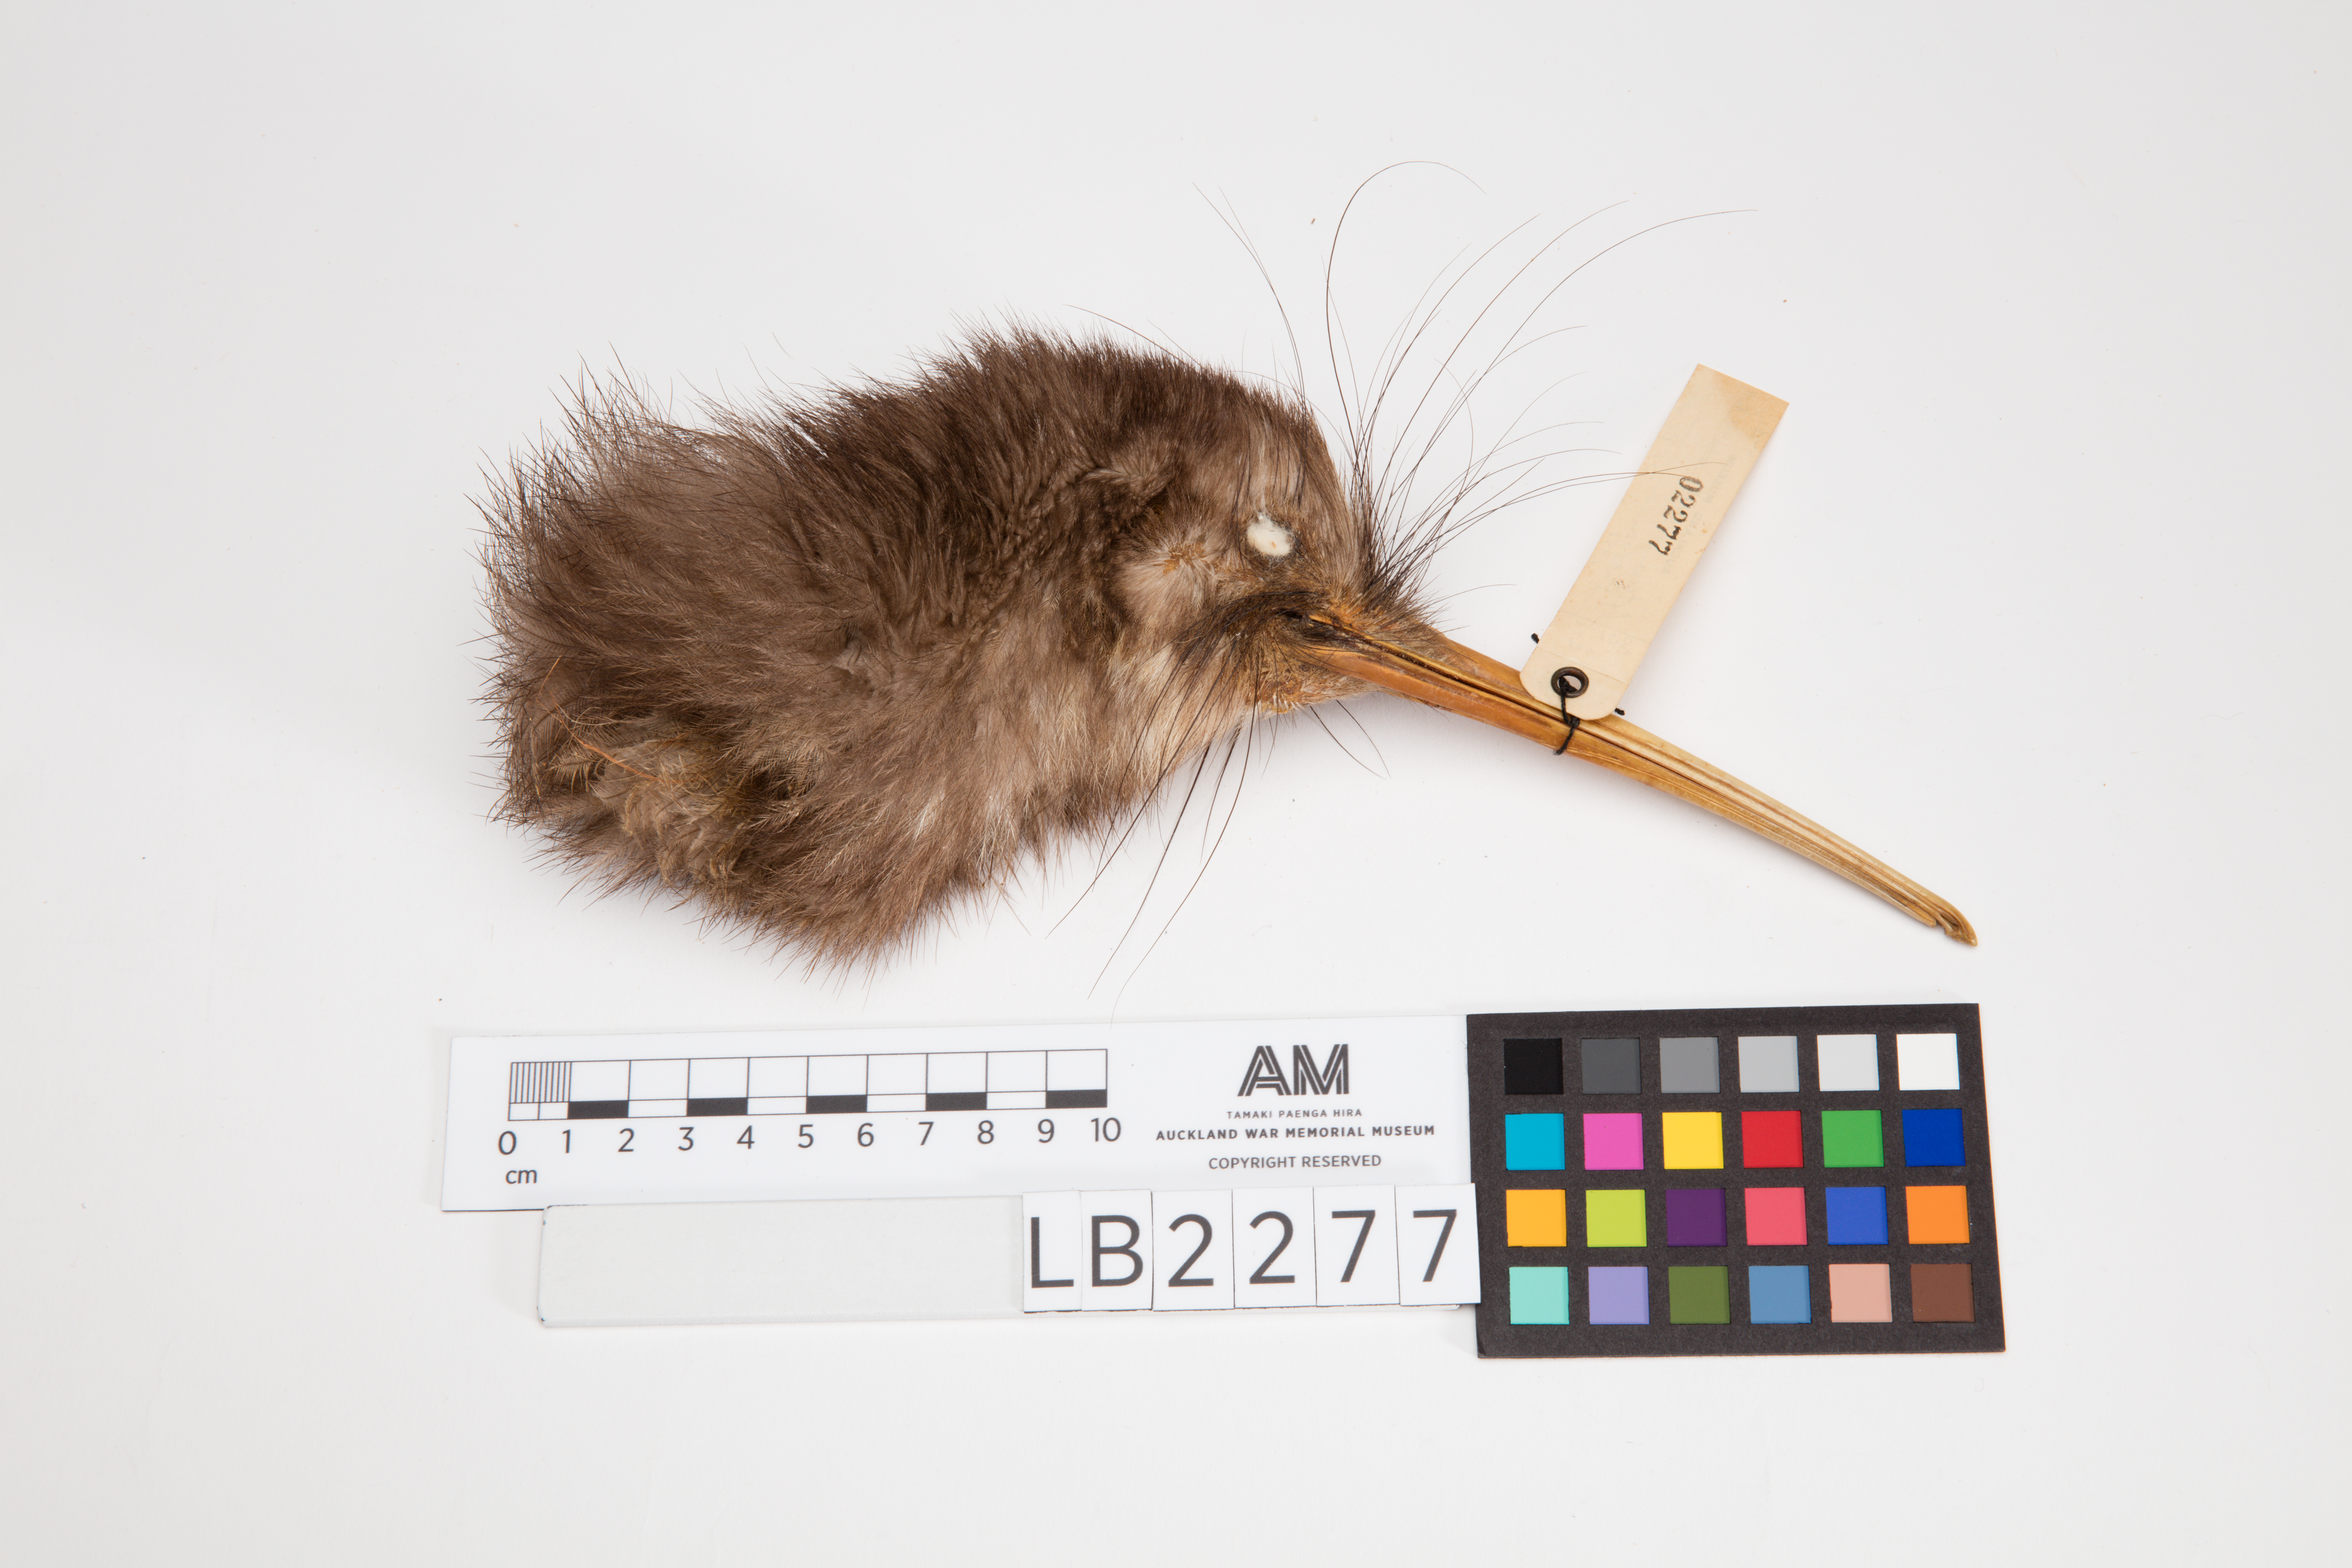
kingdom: Animalia
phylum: Chordata
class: Aves
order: Apterygiformes
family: Apterygidae
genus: Apteryx
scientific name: Apteryx mantelli
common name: North island brown kiwi
